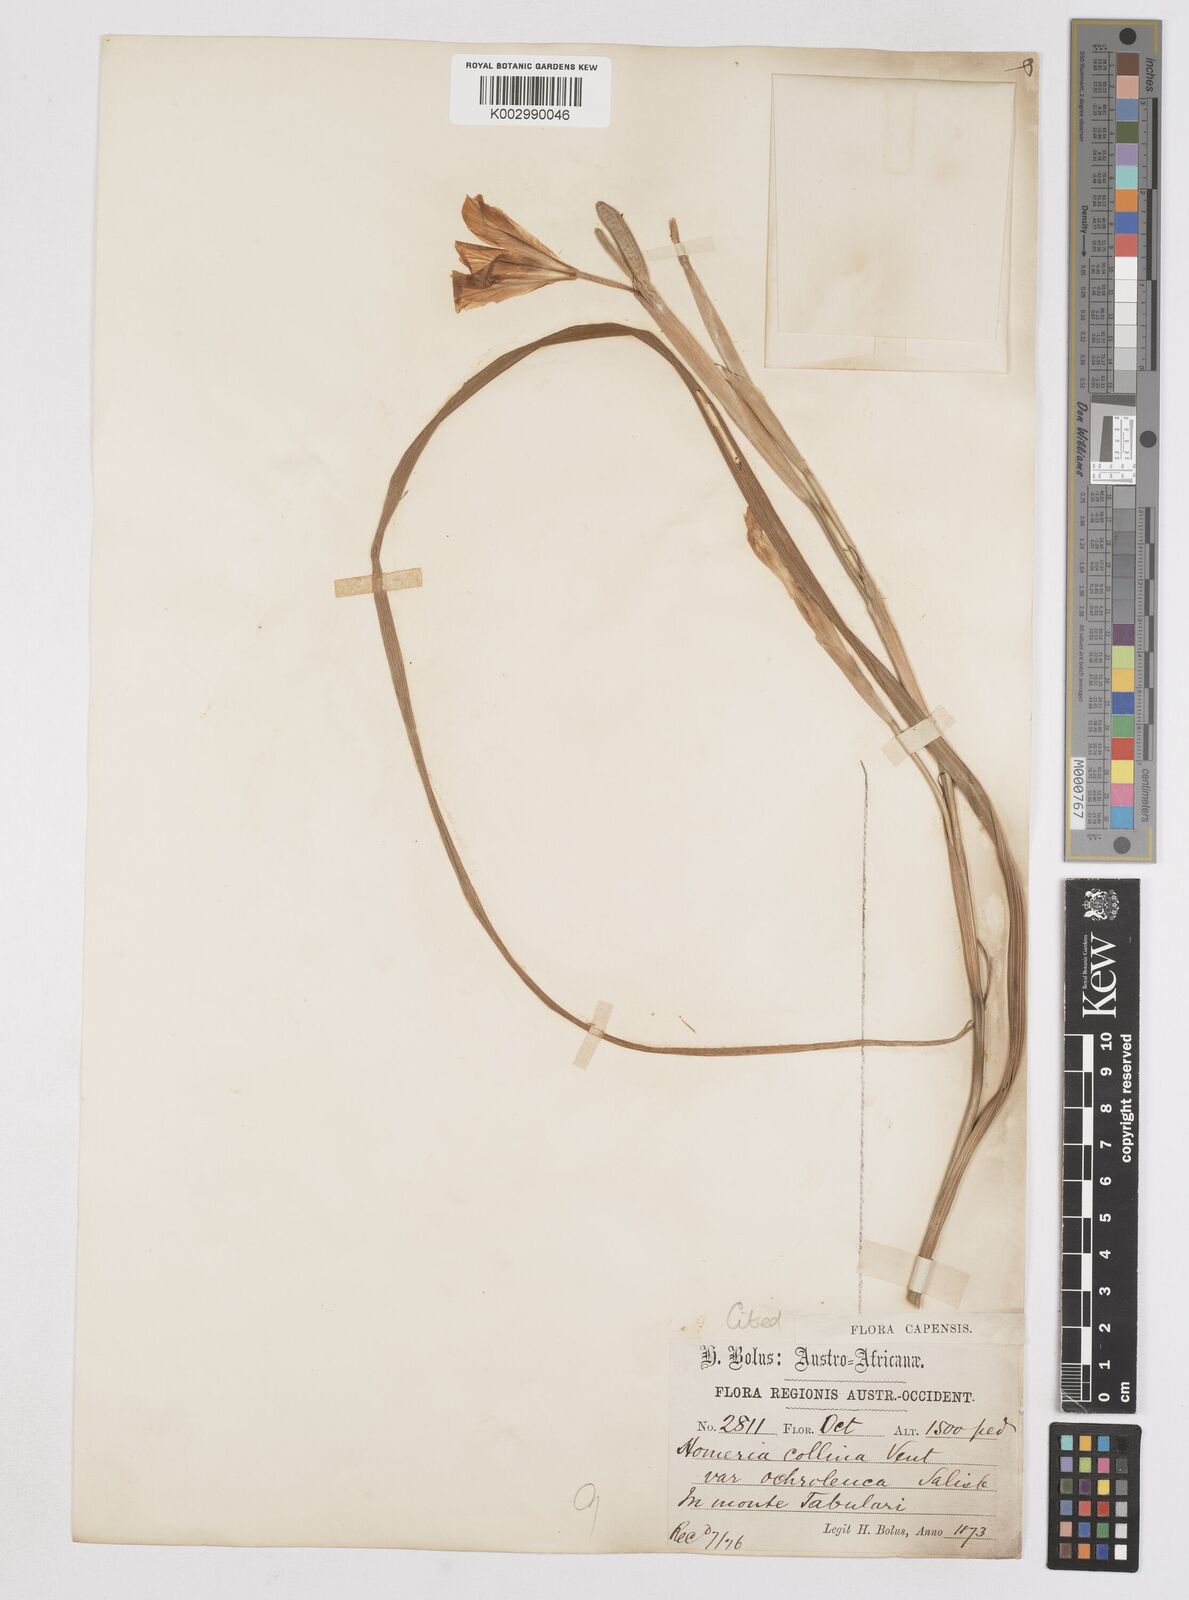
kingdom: Plantae
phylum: Tracheophyta
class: Liliopsida
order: Asparagales
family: Iridaceae
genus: Moraea
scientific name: Moraea ochroleuca
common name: Red tulp
